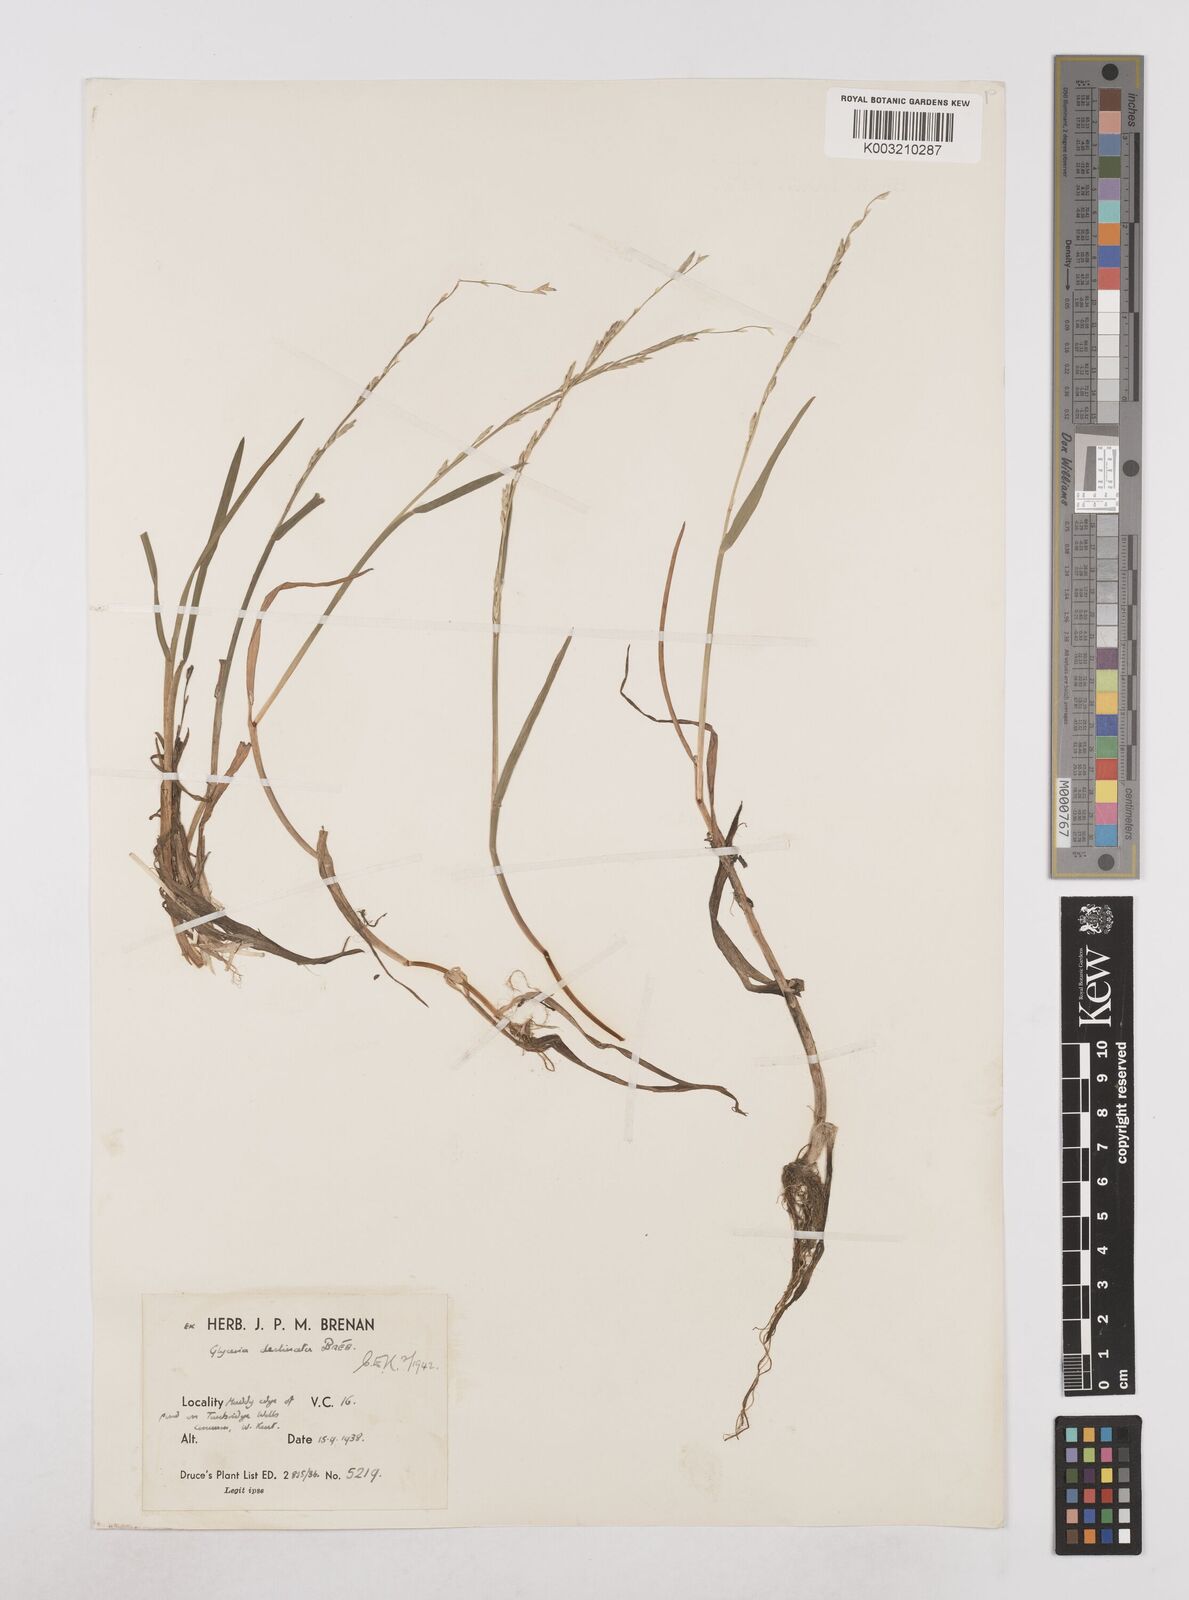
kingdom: Plantae
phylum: Tracheophyta
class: Liliopsida
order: Poales
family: Poaceae
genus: Glyceria
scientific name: Glyceria declinata
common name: Small sweet-grass
